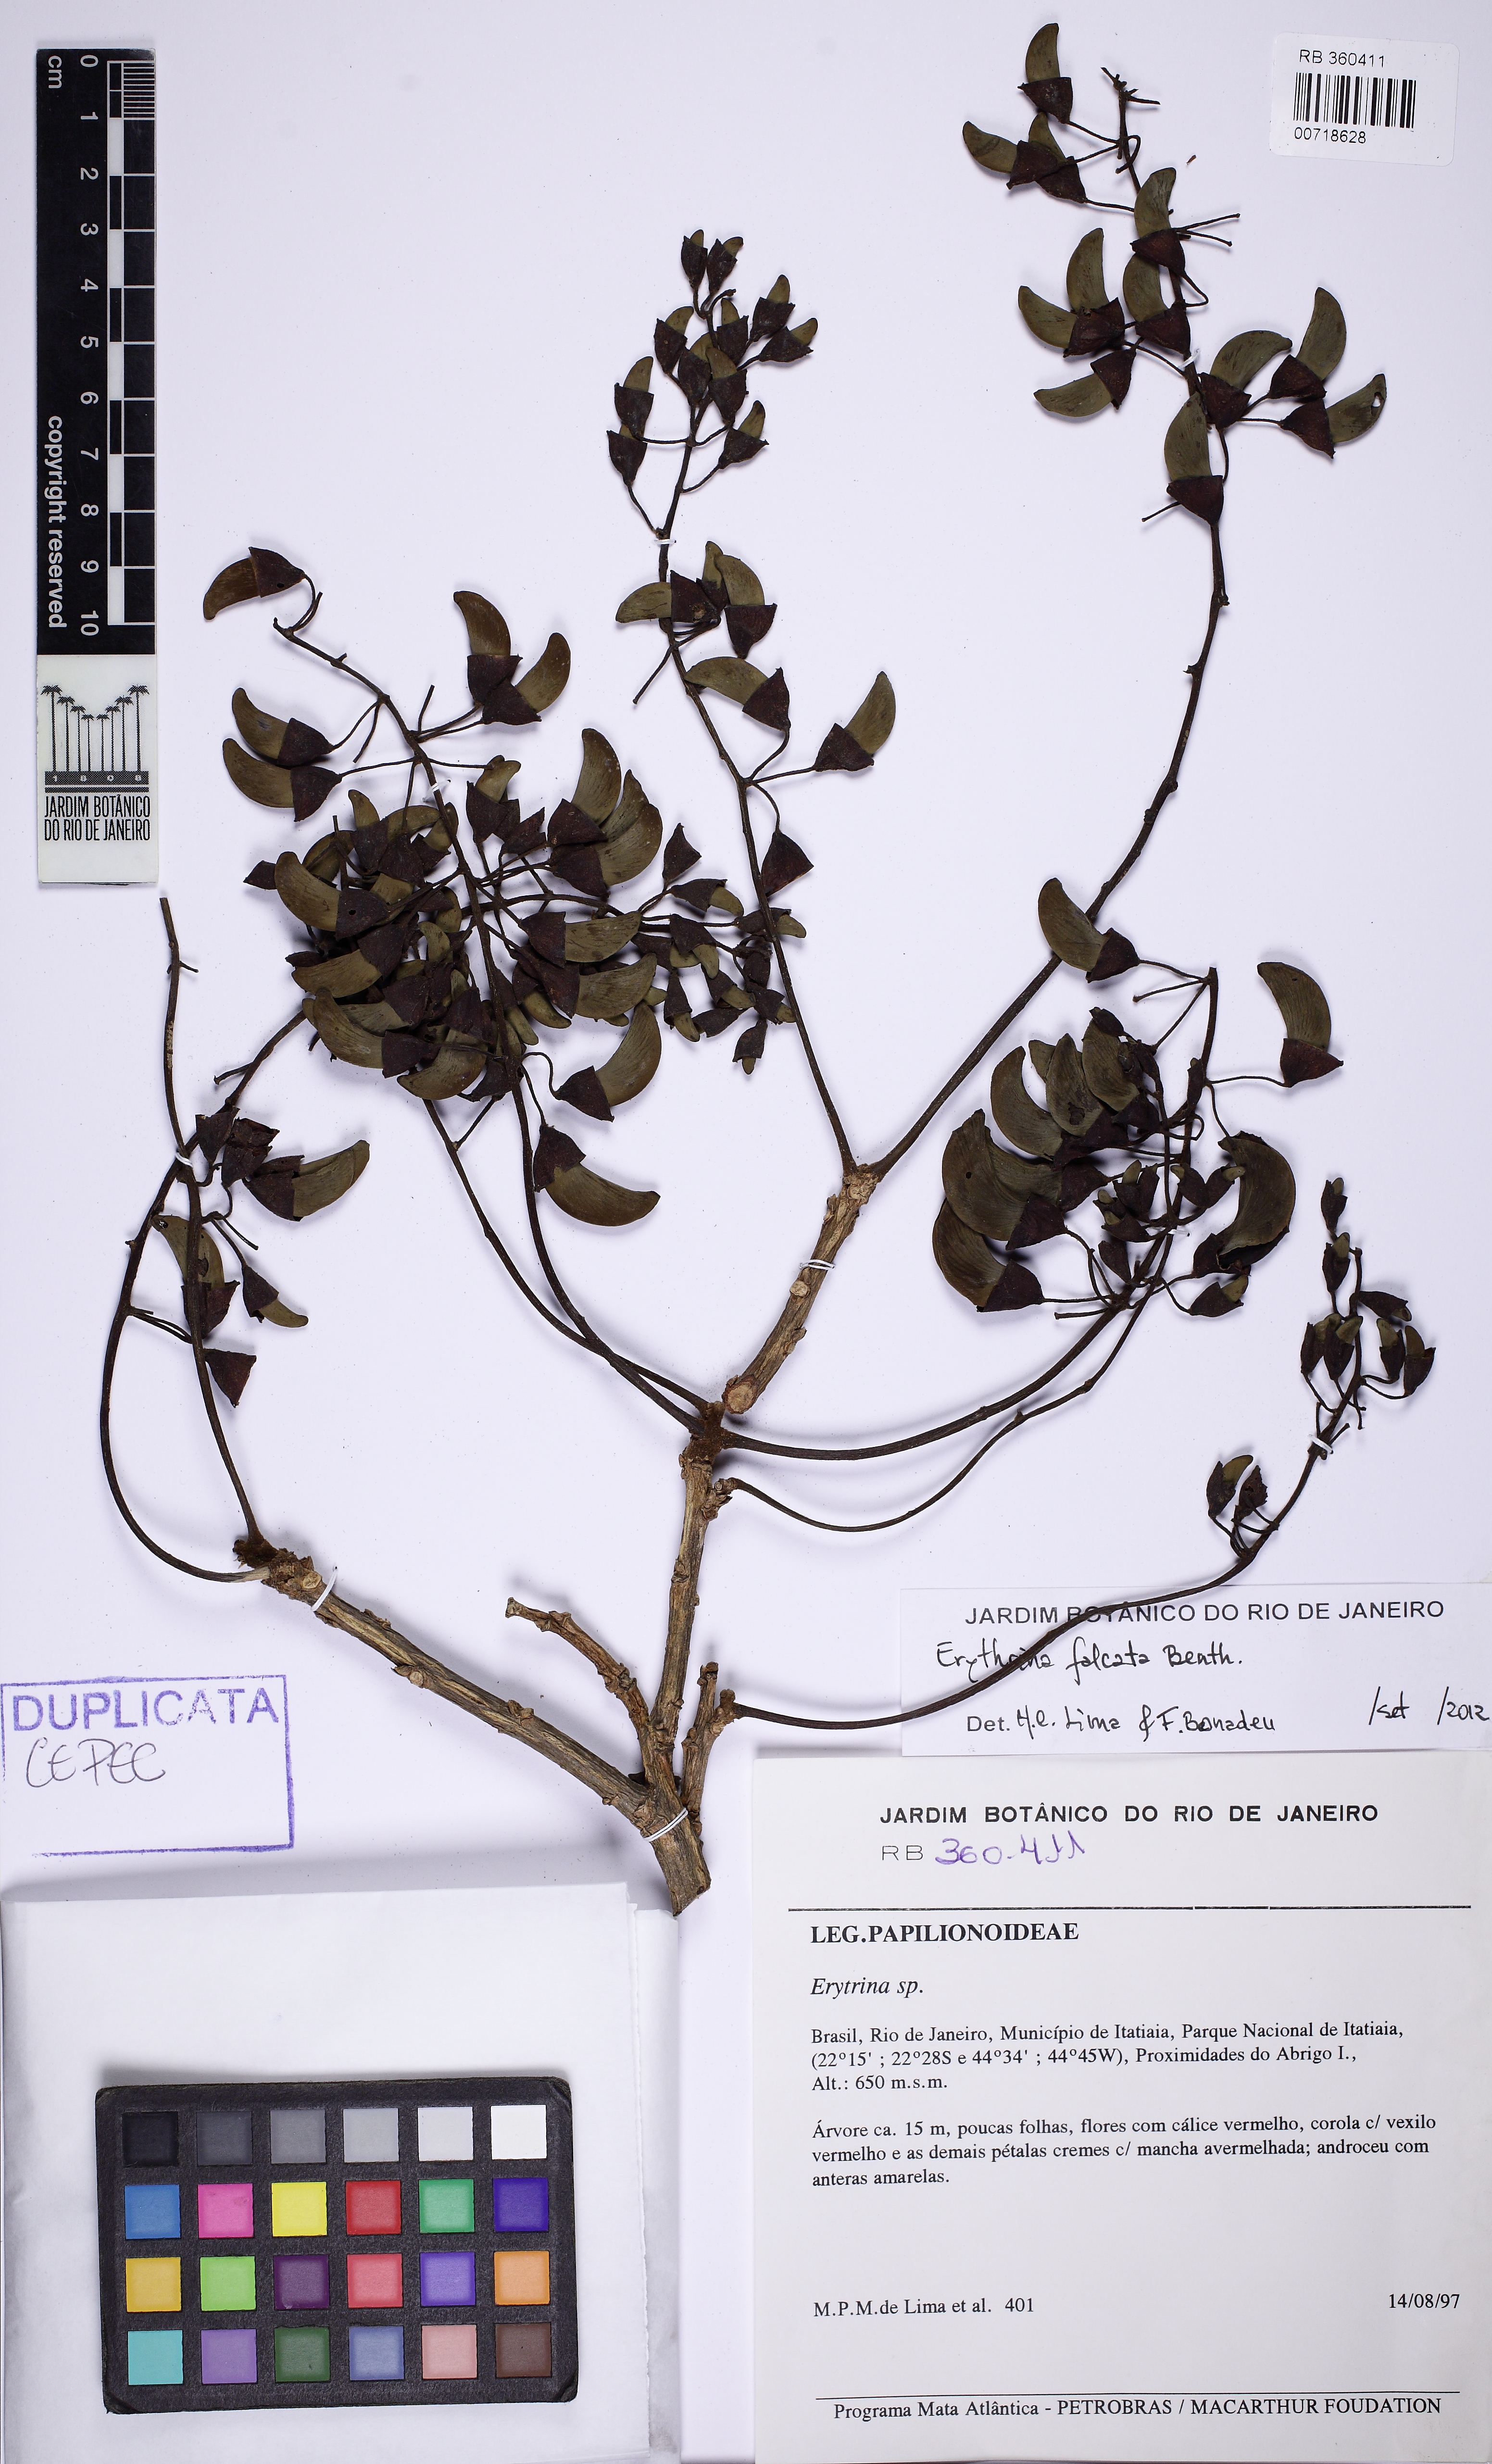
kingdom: Plantae
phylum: Tracheophyta
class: Magnoliopsida
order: Fabales
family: Fabaceae
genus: Erythrina
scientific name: Erythrina falcata
